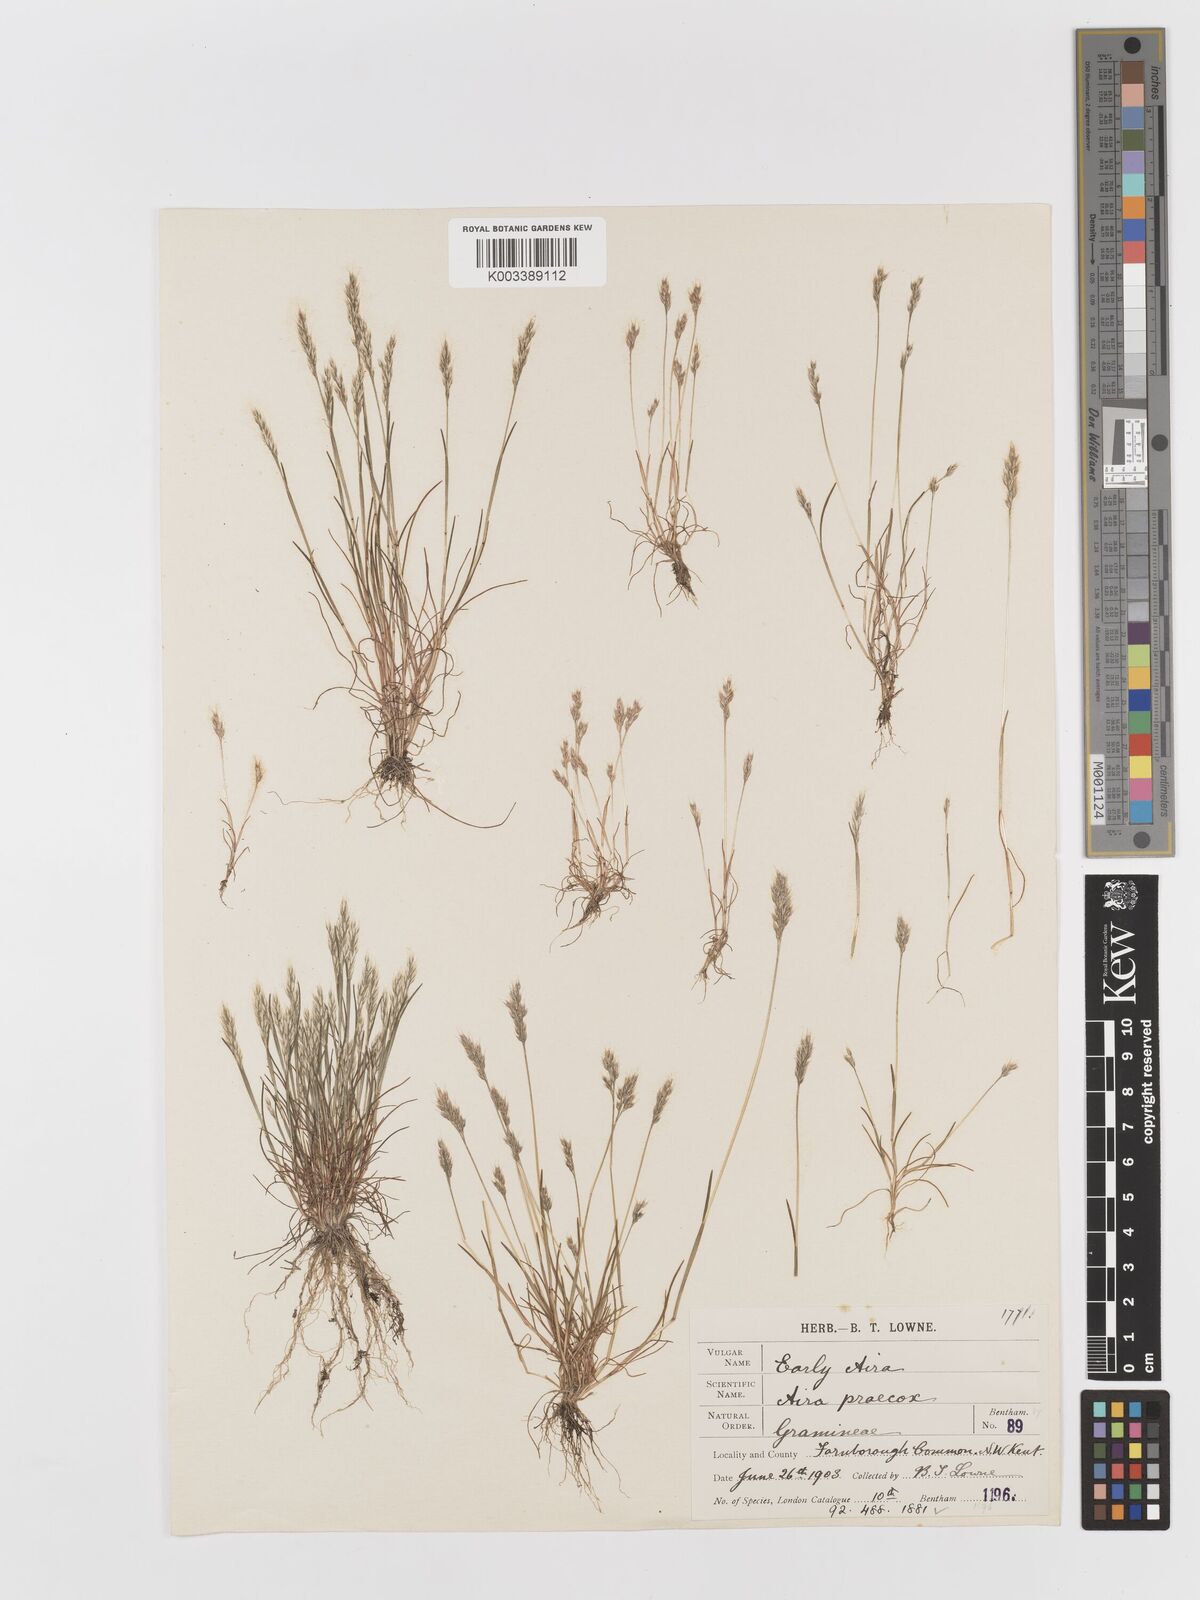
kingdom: Plantae
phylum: Tracheophyta
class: Liliopsida
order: Poales
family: Poaceae
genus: Aira
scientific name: Aira praecox
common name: Early hair-grass
